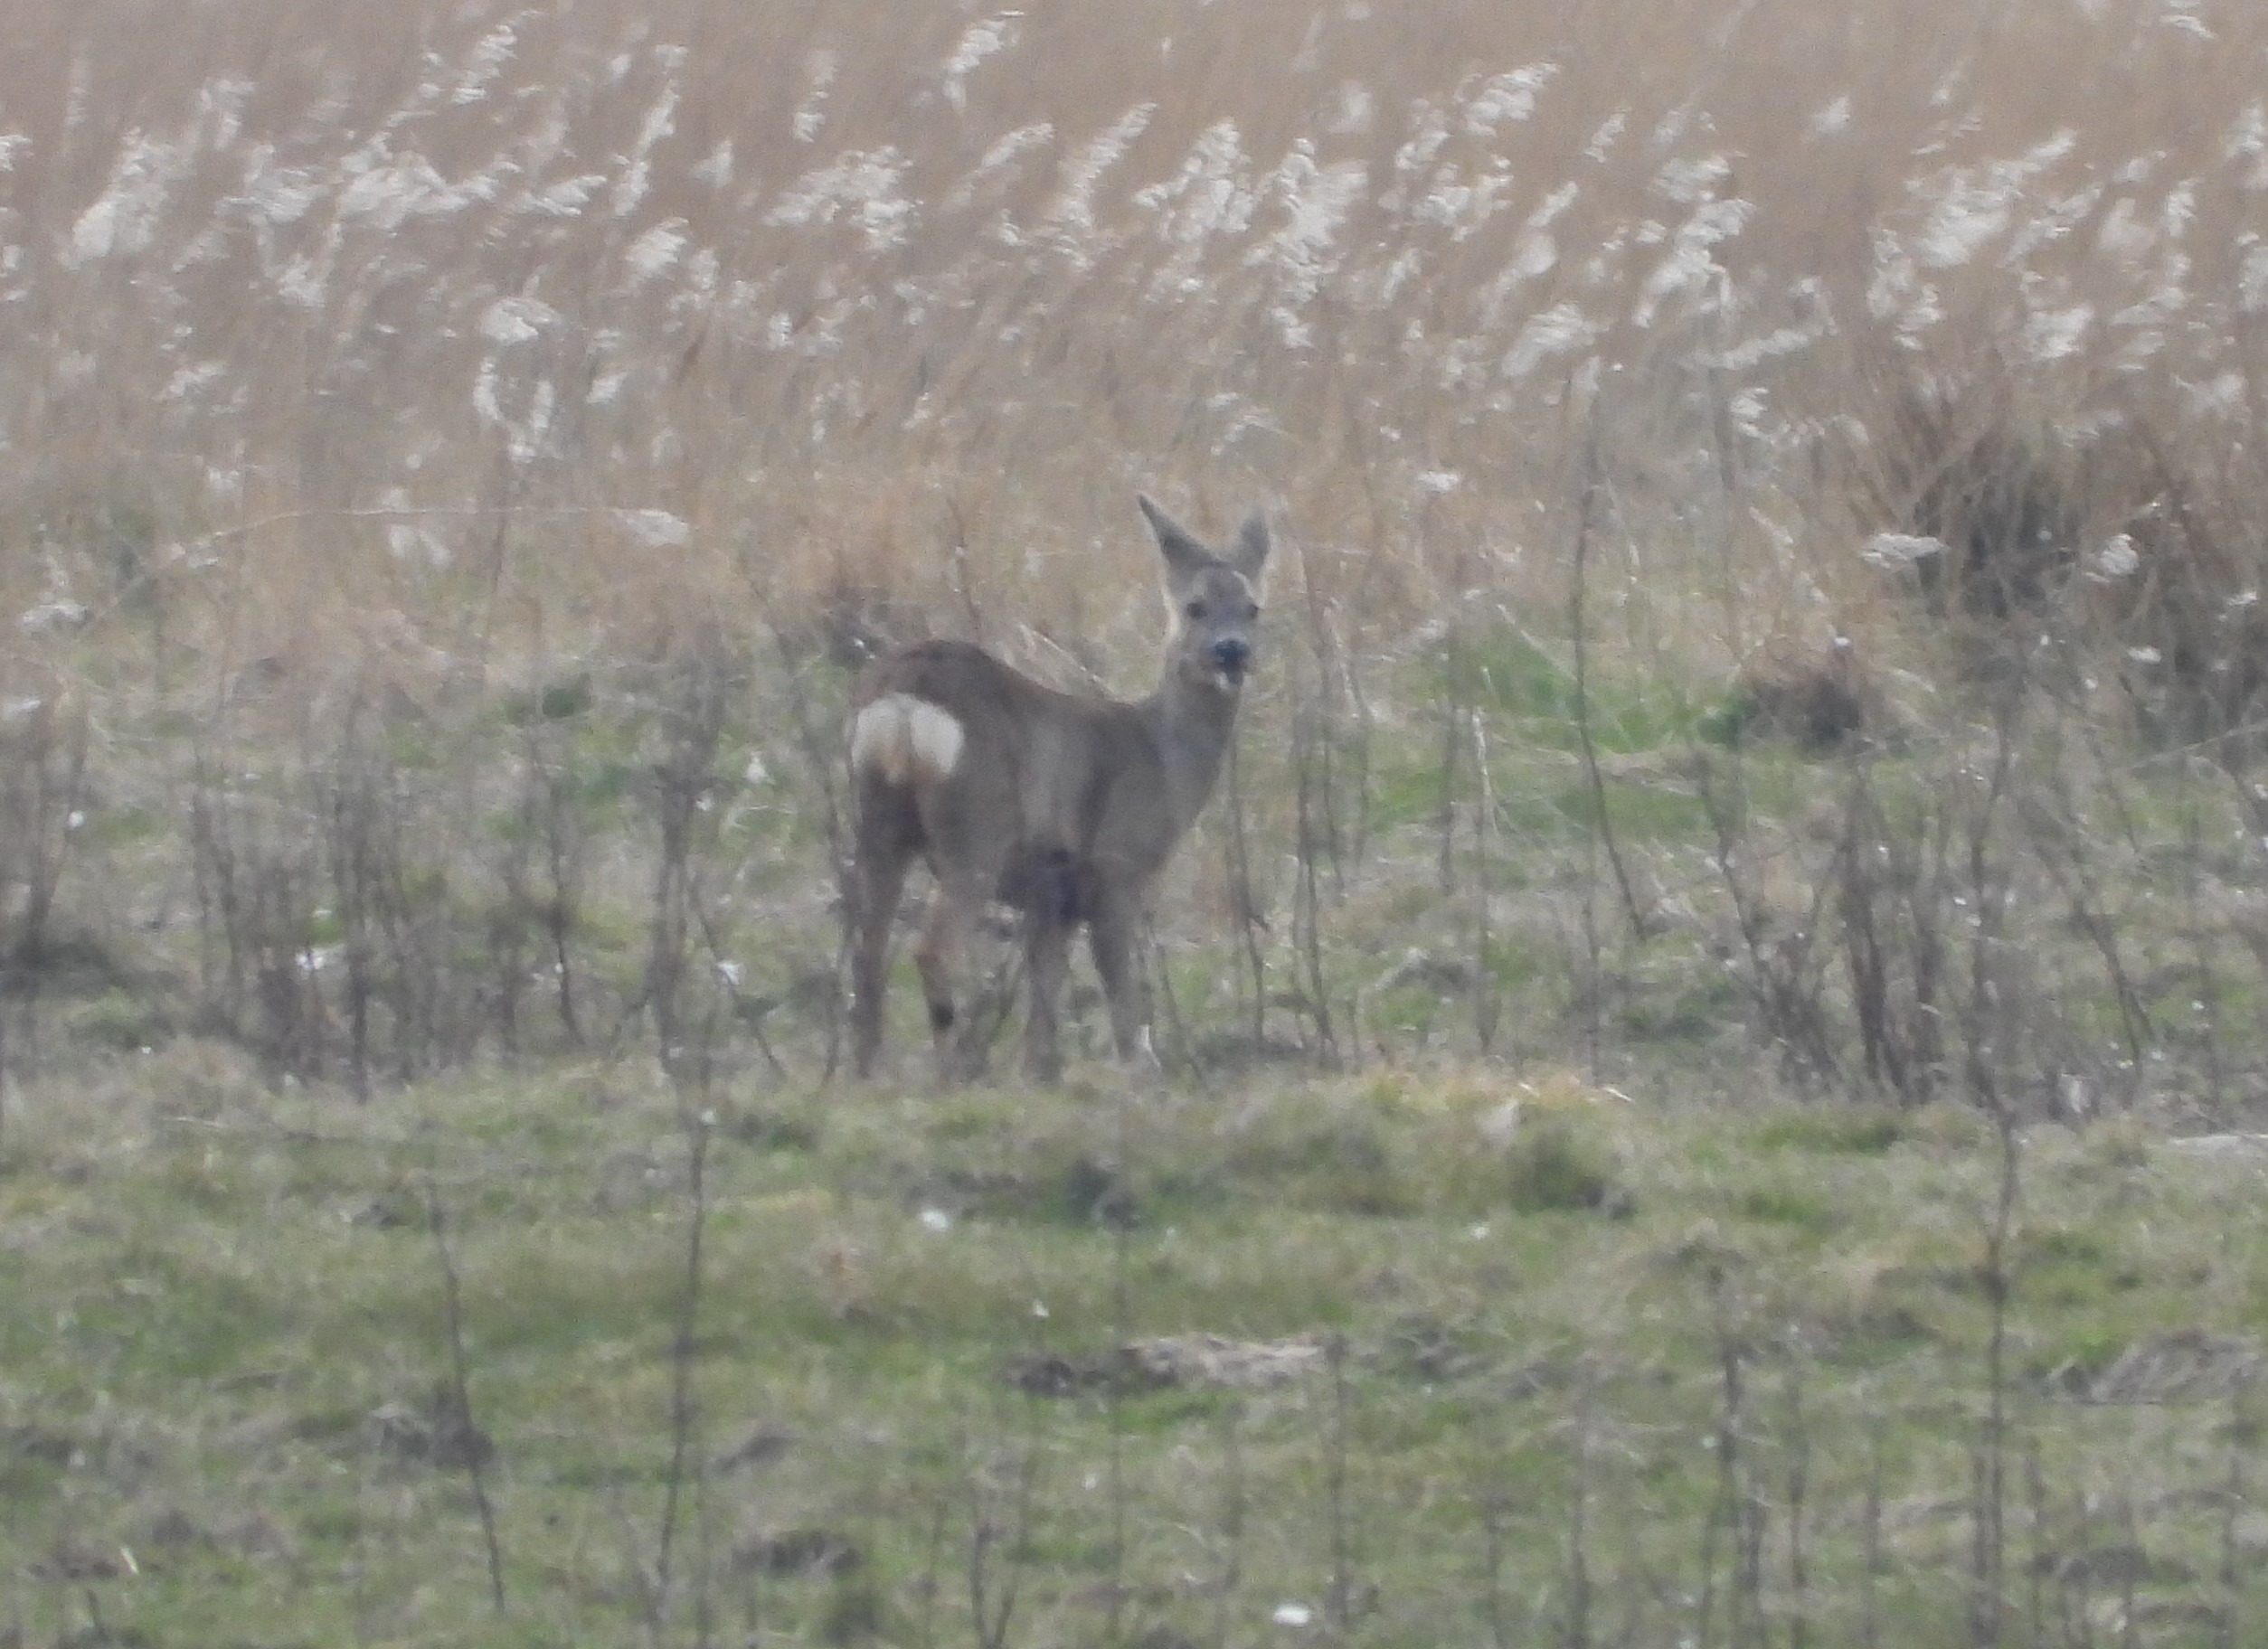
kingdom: Animalia
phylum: Chordata
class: Mammalia
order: Artiodactyla
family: Cervidae
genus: Capreolus
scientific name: Capreolus capreolus
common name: Rådyr
